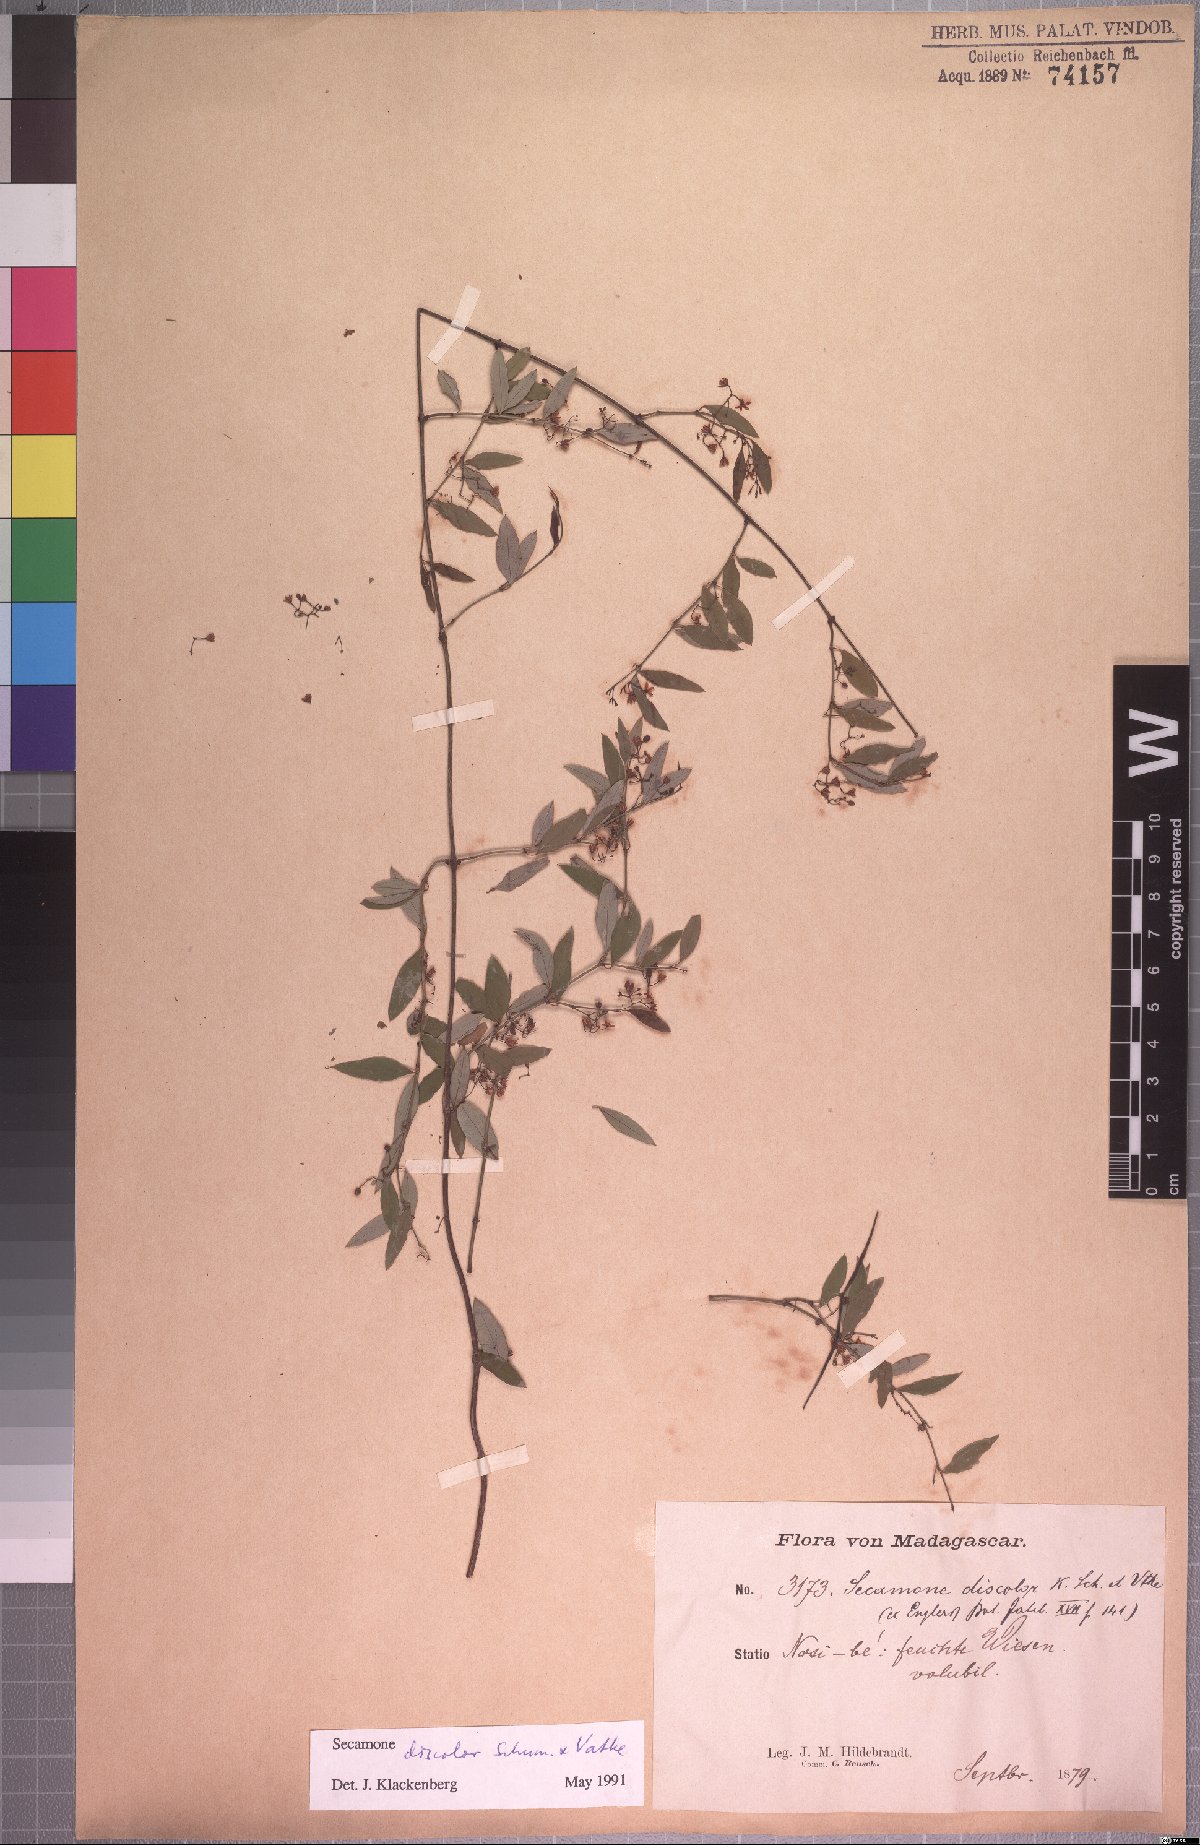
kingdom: Plantae
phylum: Tracheophyta
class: Magnoliopsida
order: Gentianales
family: Apocynaceae
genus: Secamone
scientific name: Secamone discolor
